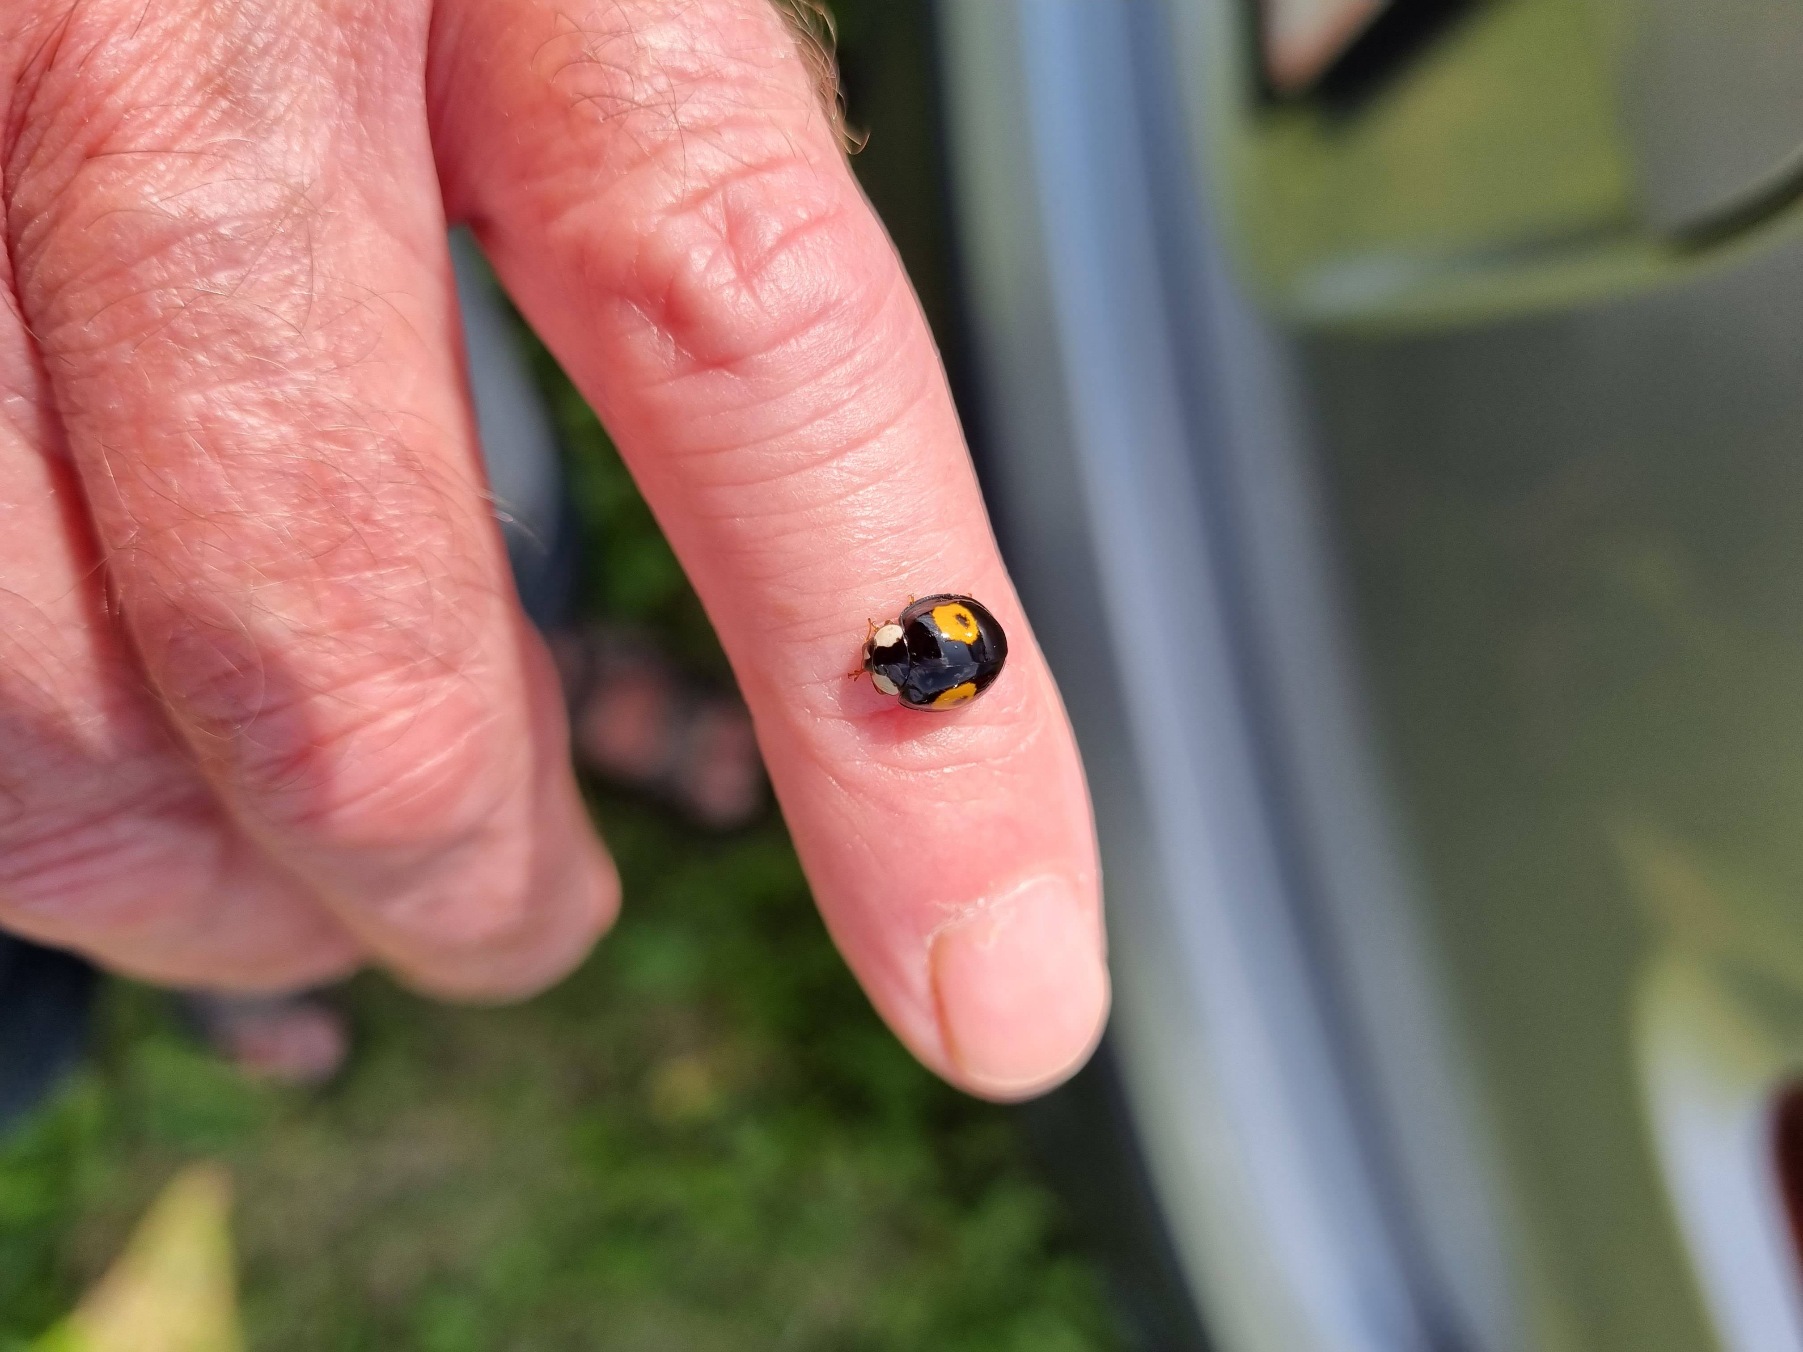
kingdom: Animalia
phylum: Arthropoda
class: Insecta
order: Coleoptera
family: Coccinellidae
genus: Harmonia
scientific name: Harmonia axyridis
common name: Harlekinmariehøne
